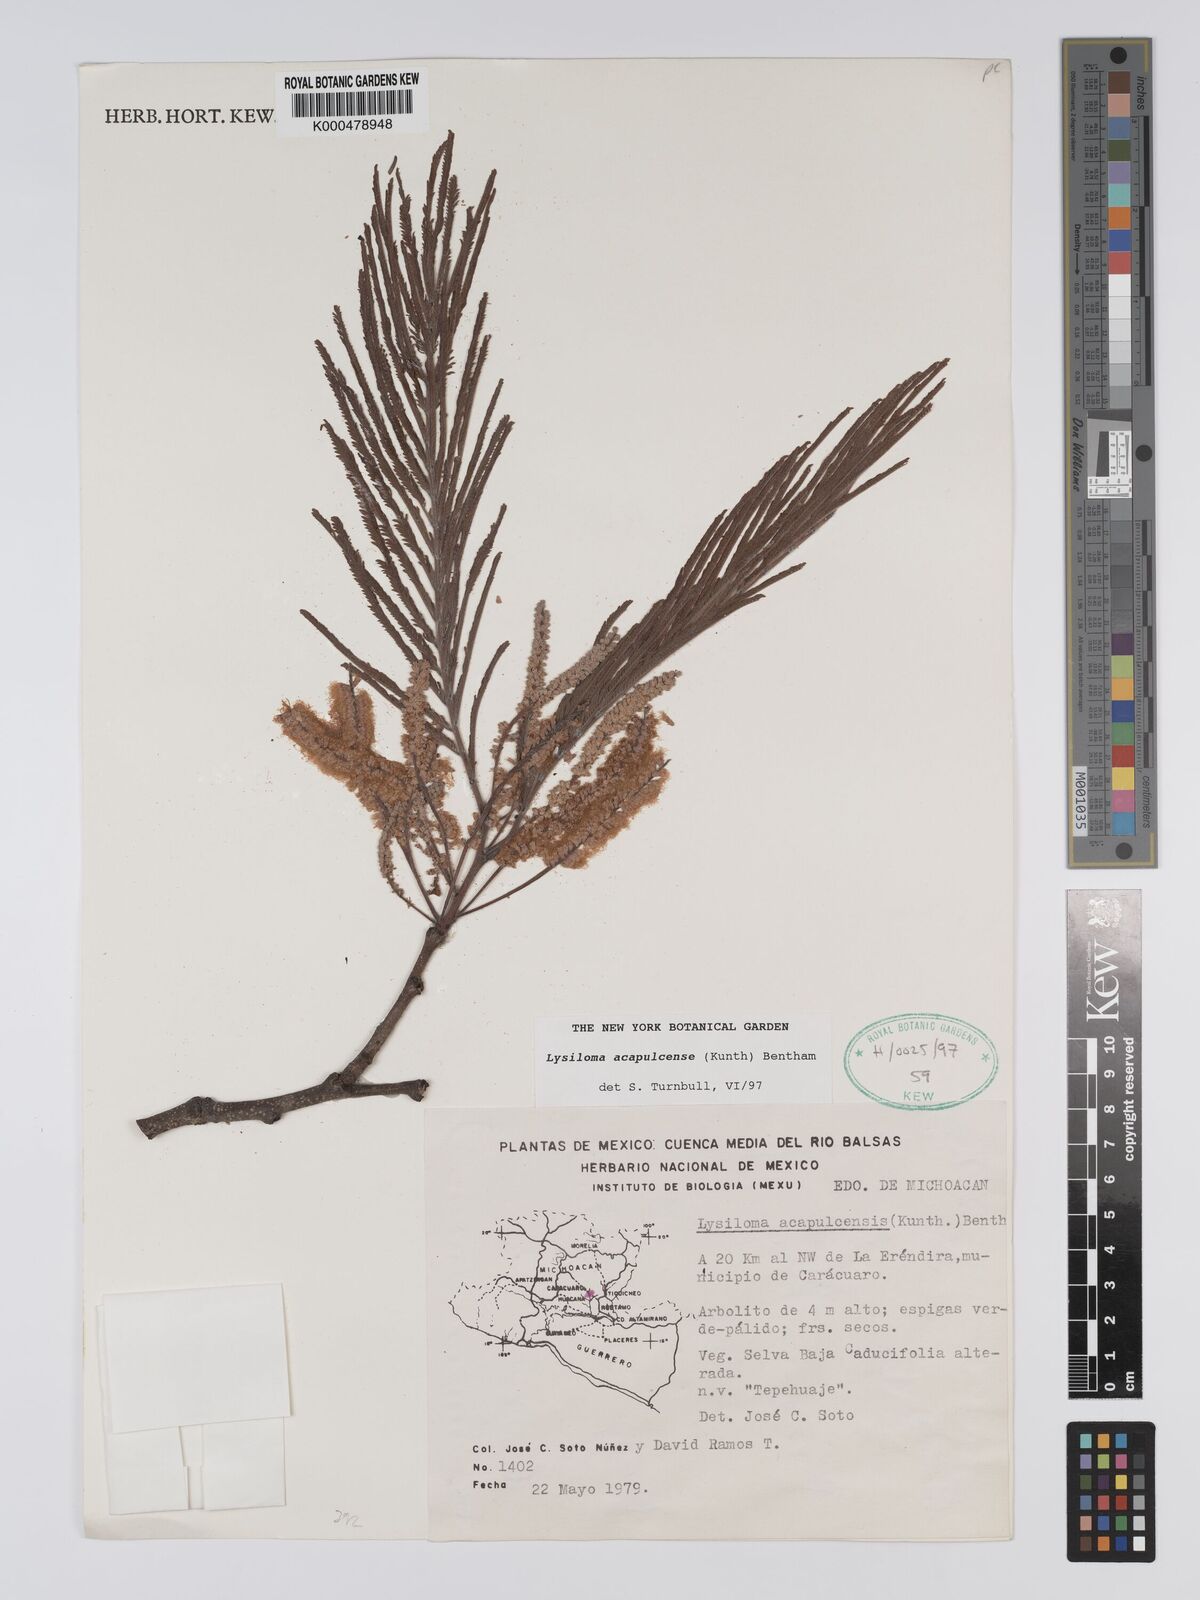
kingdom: Plantae
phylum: Tracheophyta
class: Magnoliopsida
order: Fabales
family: Fabaceae
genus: Lysiloma
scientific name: Lysiloma
